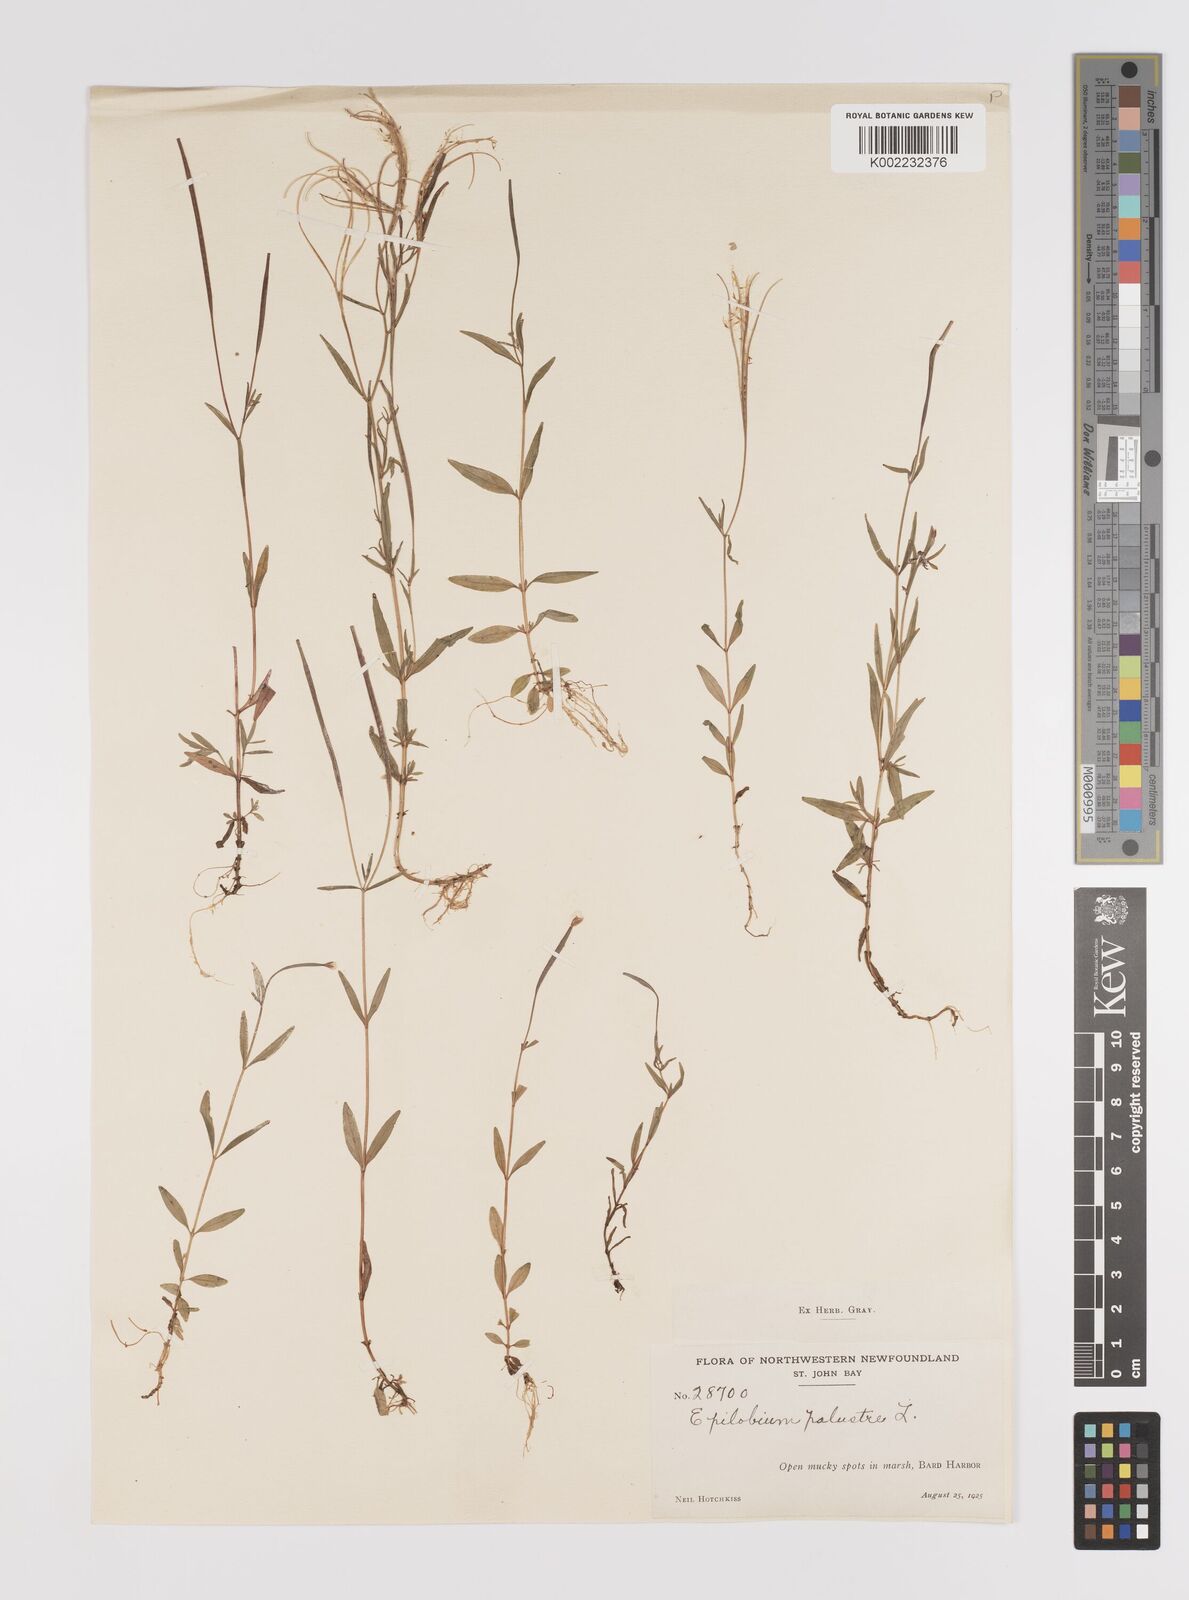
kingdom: Plantae
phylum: Tracheophyta
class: Magnoliopsida
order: Myrtales
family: Onagraceae
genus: Epilobium
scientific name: Epilobium palustre
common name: Marsh willowherb
